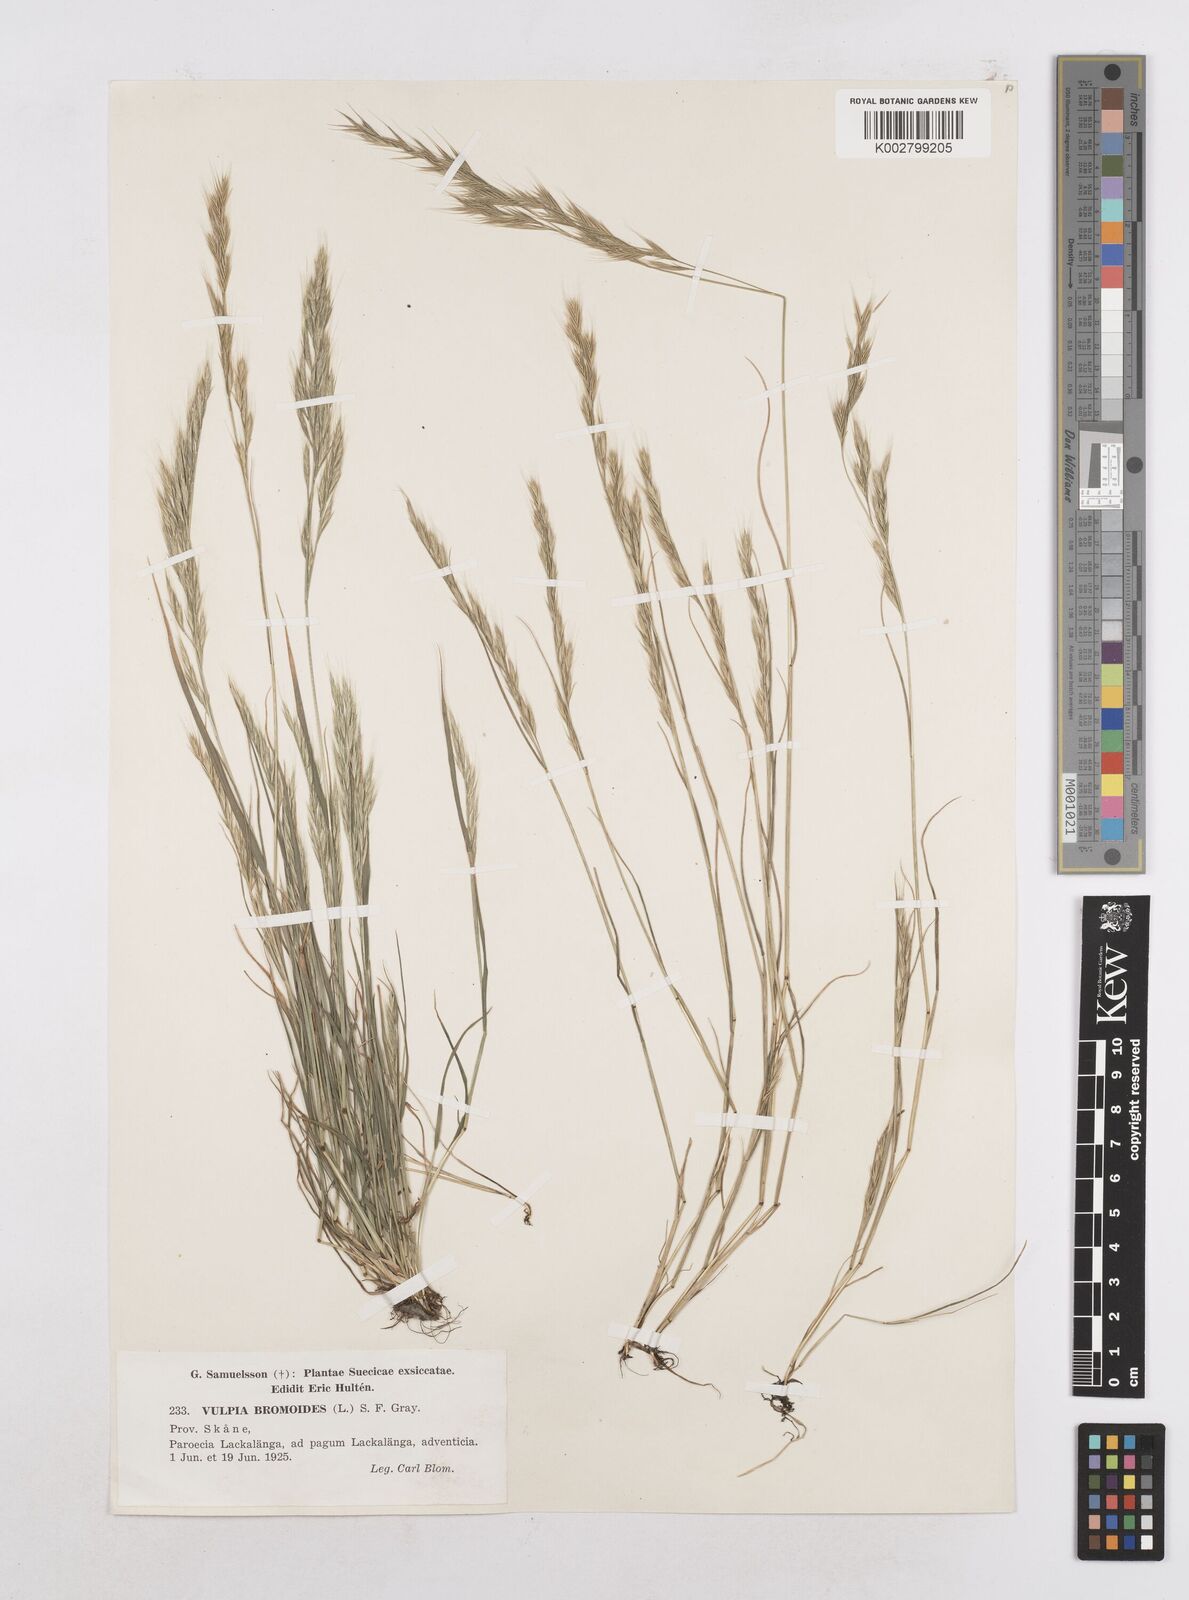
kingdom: Plantae
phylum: Tracheophyta
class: Liliopsida
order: Poales
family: Poaceae
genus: Festuca
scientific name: Festuca bromoides
